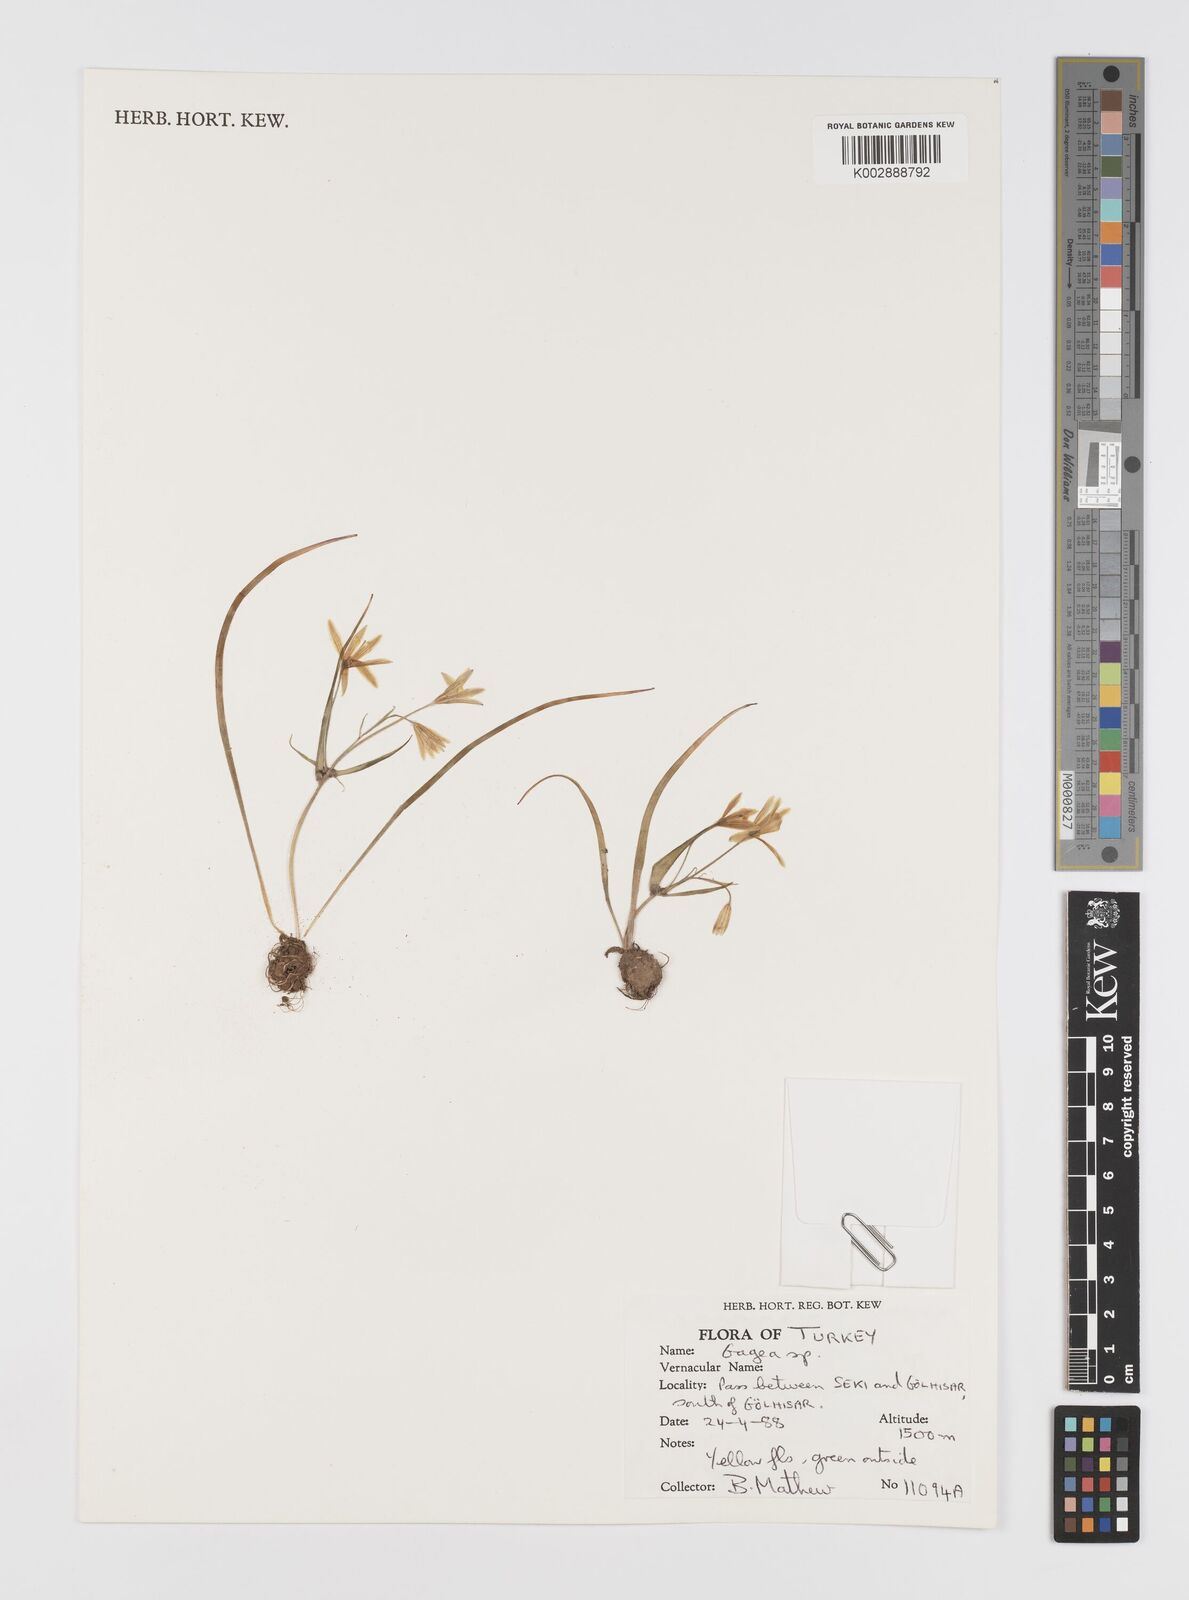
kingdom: Plantae
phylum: Tracheophyta
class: Liliopsida
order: Liliales
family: Liliaceae
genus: Gagea
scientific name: Gagea
